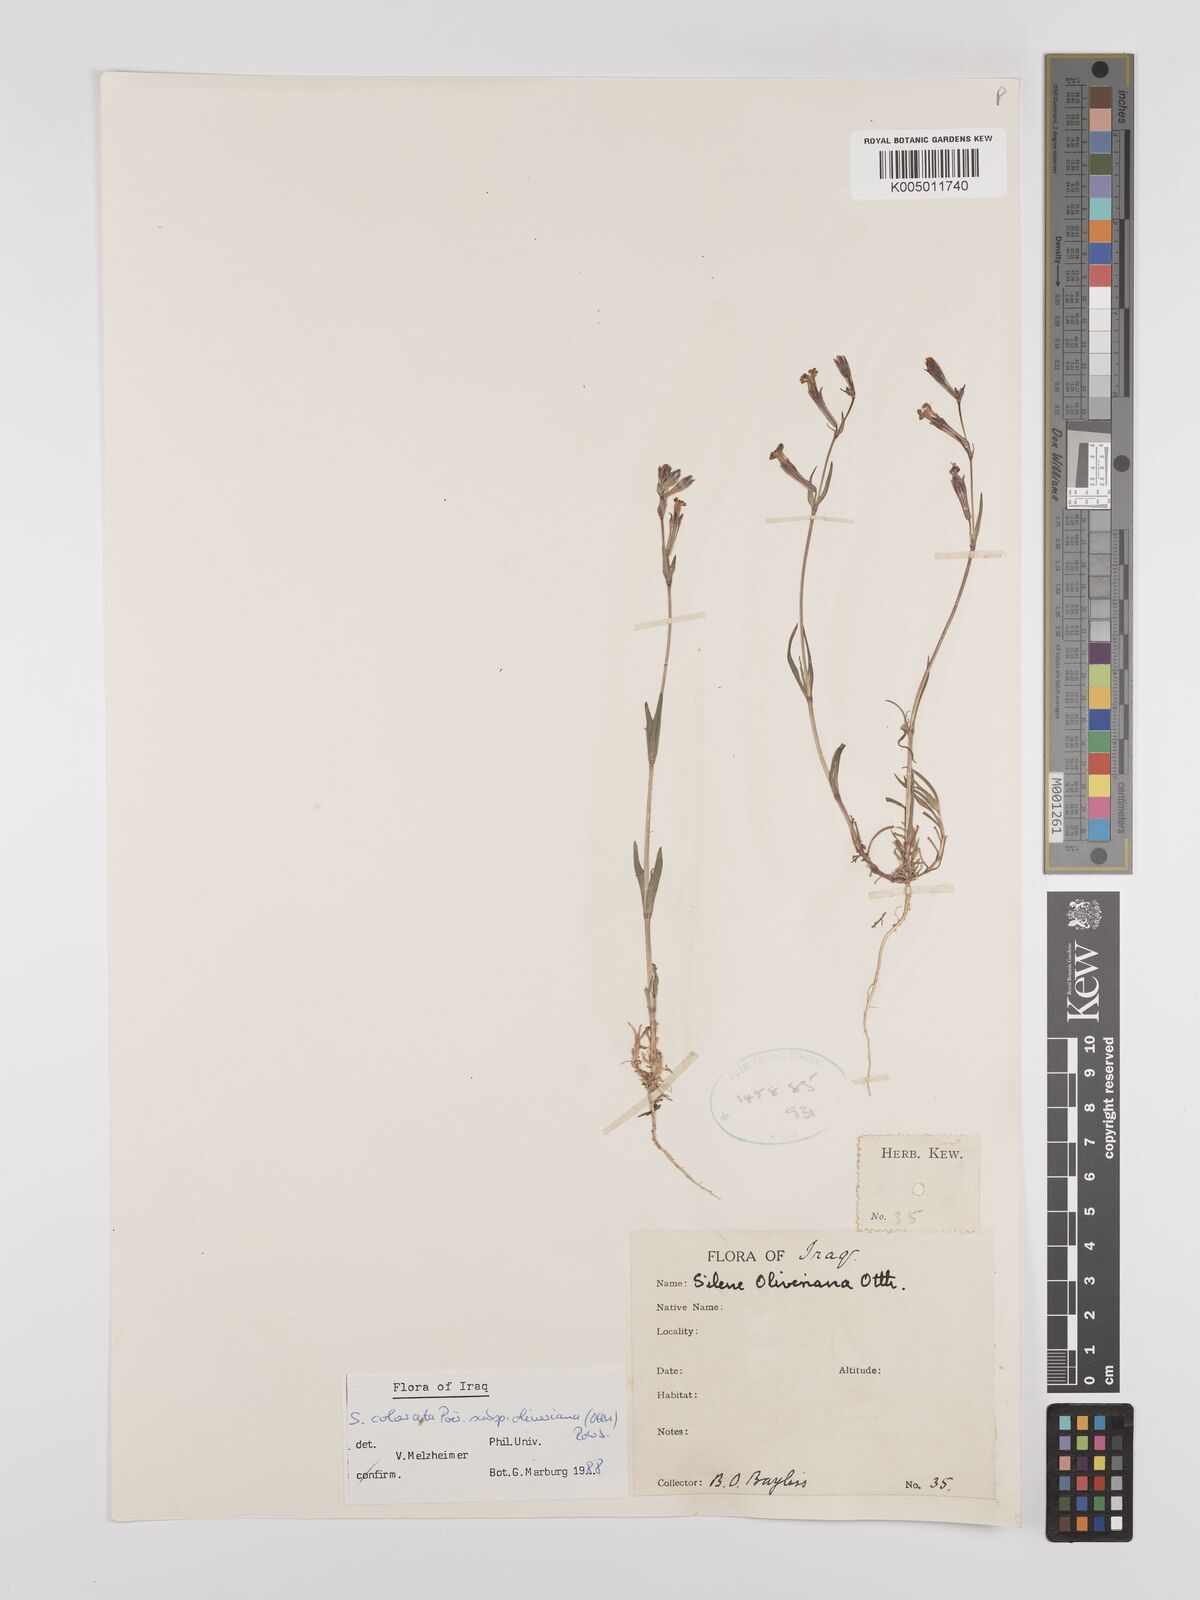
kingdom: Plantae
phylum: Tracheophyta
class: Magnoliopsida
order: Caryophyllales
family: Caryophyllaceae
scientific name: Caryophyllaceae
